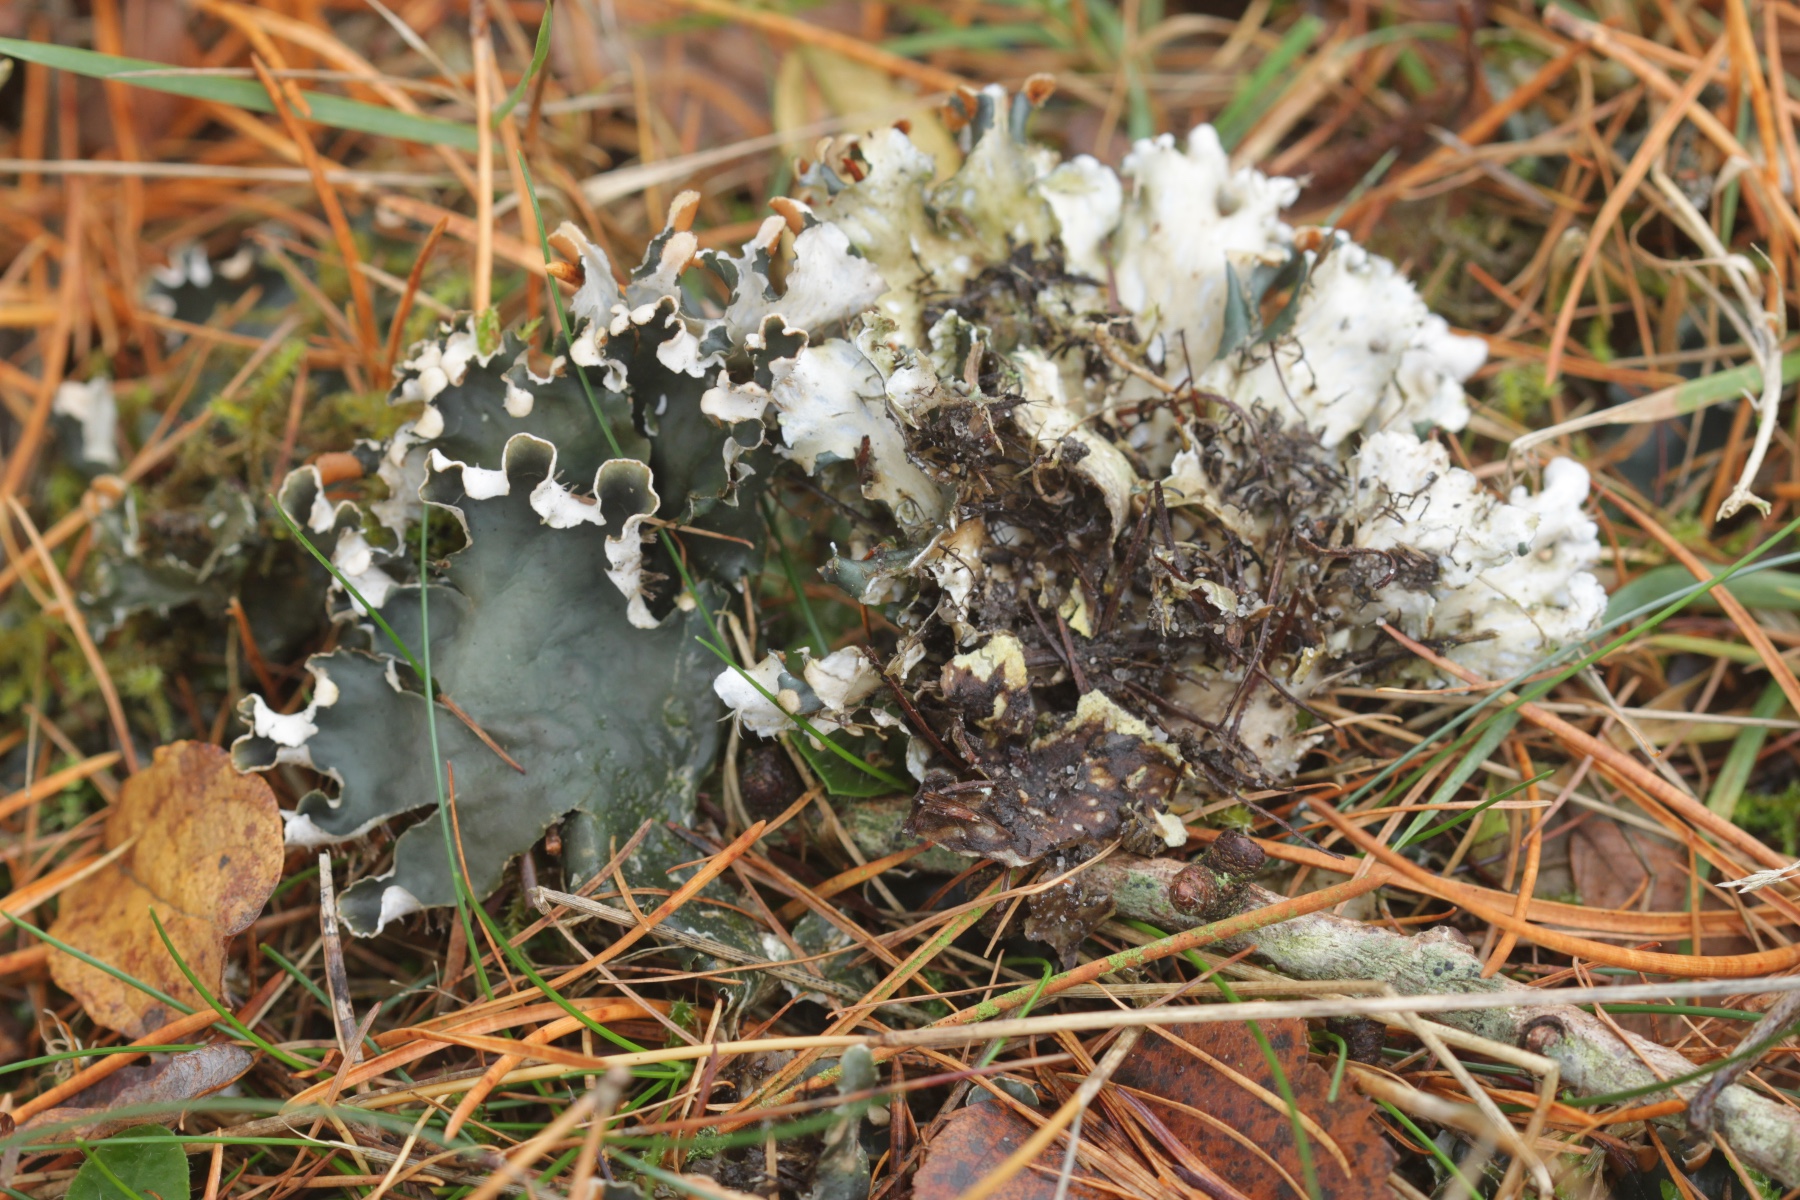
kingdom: Fungi
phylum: Ascomycota
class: Lecanoromycetes
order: Peltigerales
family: Peltigeraceae
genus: Peltigera
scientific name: Peltigera hymenina
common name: hinde-skjoldlav
